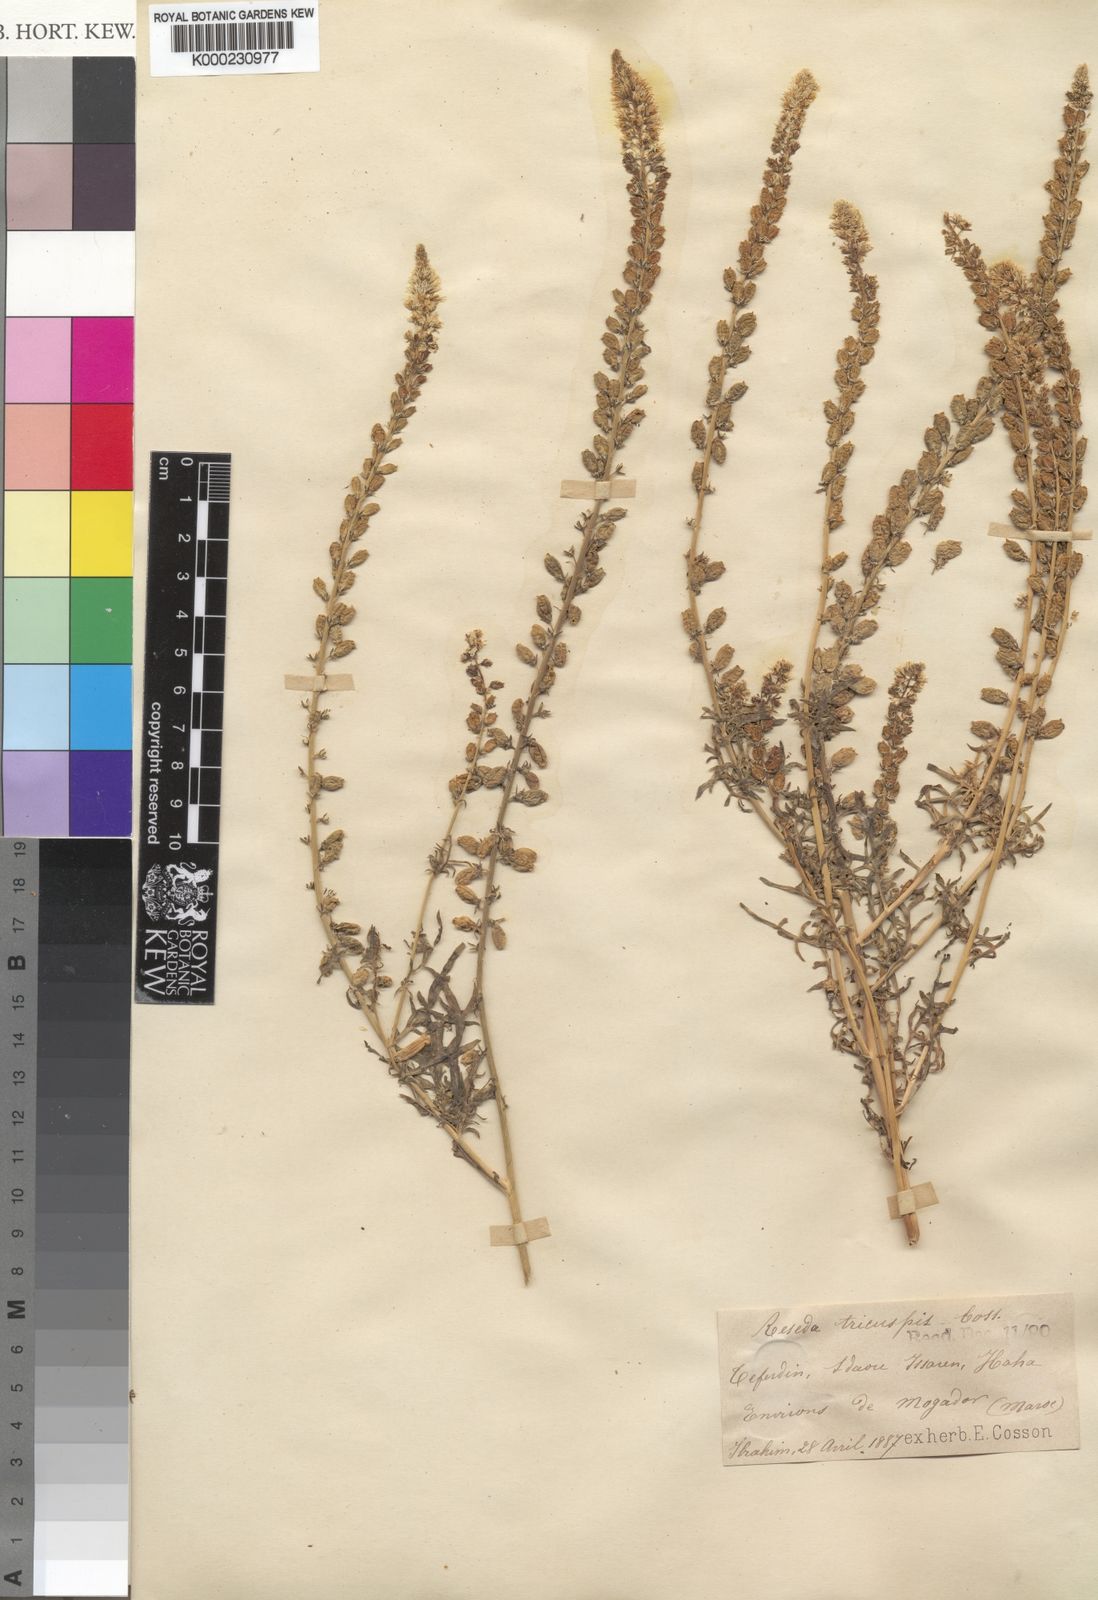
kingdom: Plantae
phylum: Tracheophyta
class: Magnoliopsida
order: Brassicales
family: Resedaceae
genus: Reseda
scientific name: Reseda alba
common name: White mignonette
